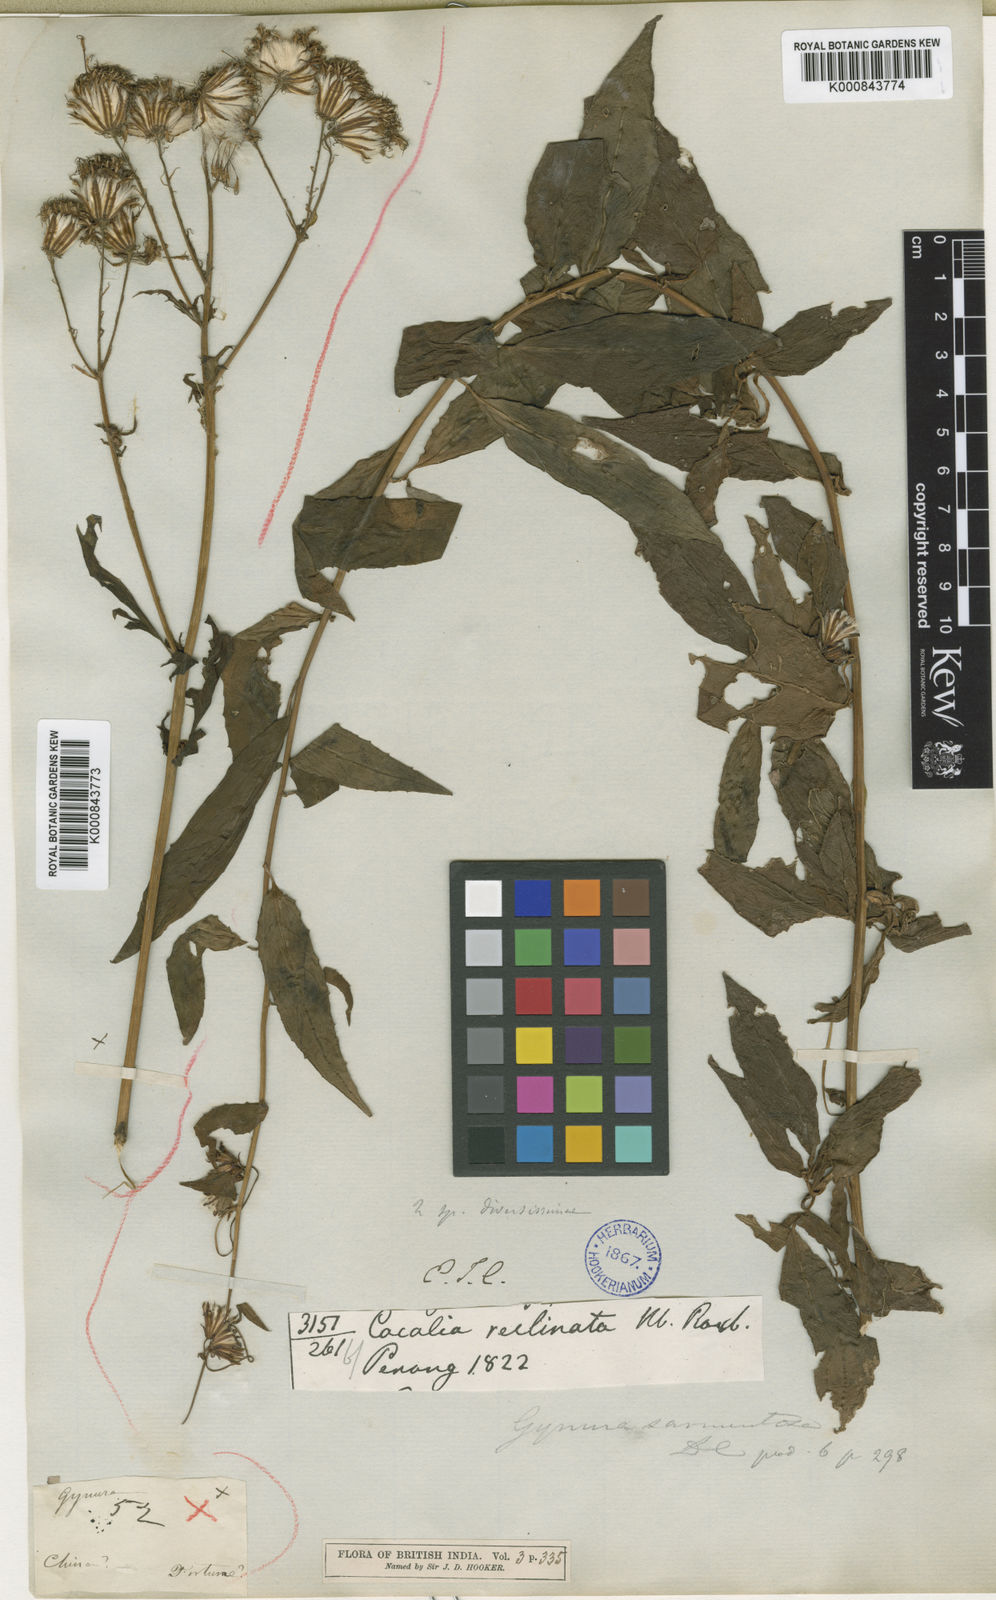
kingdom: Plantae
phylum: Tracheophyta
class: Magnoliopsida
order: Asterales
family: Asteraceae
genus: Gynura
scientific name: Gynura procumbens
